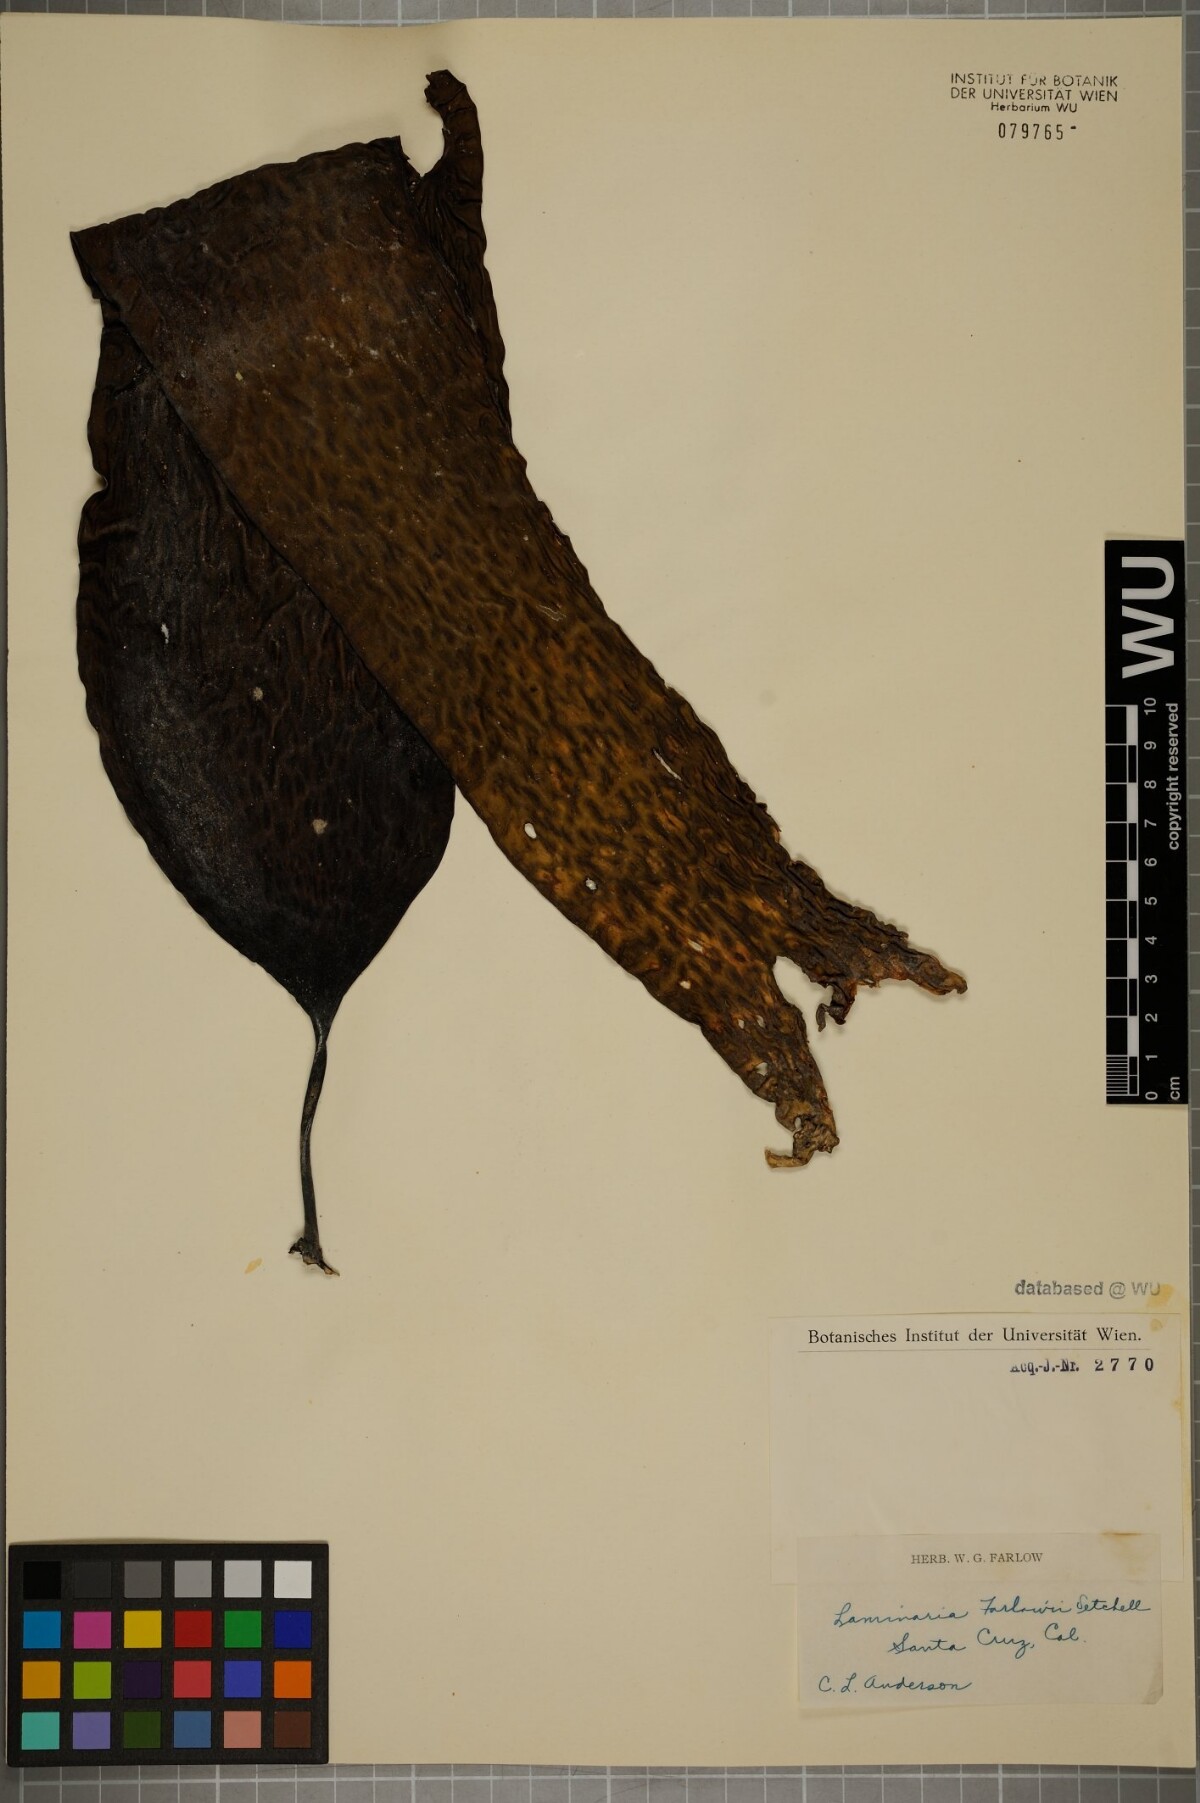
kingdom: Chromista
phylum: Ochrophyta
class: Phaeophyceae
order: Laminariales
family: Laminariaceae
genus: Laminaria
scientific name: Laminaria farlowii
